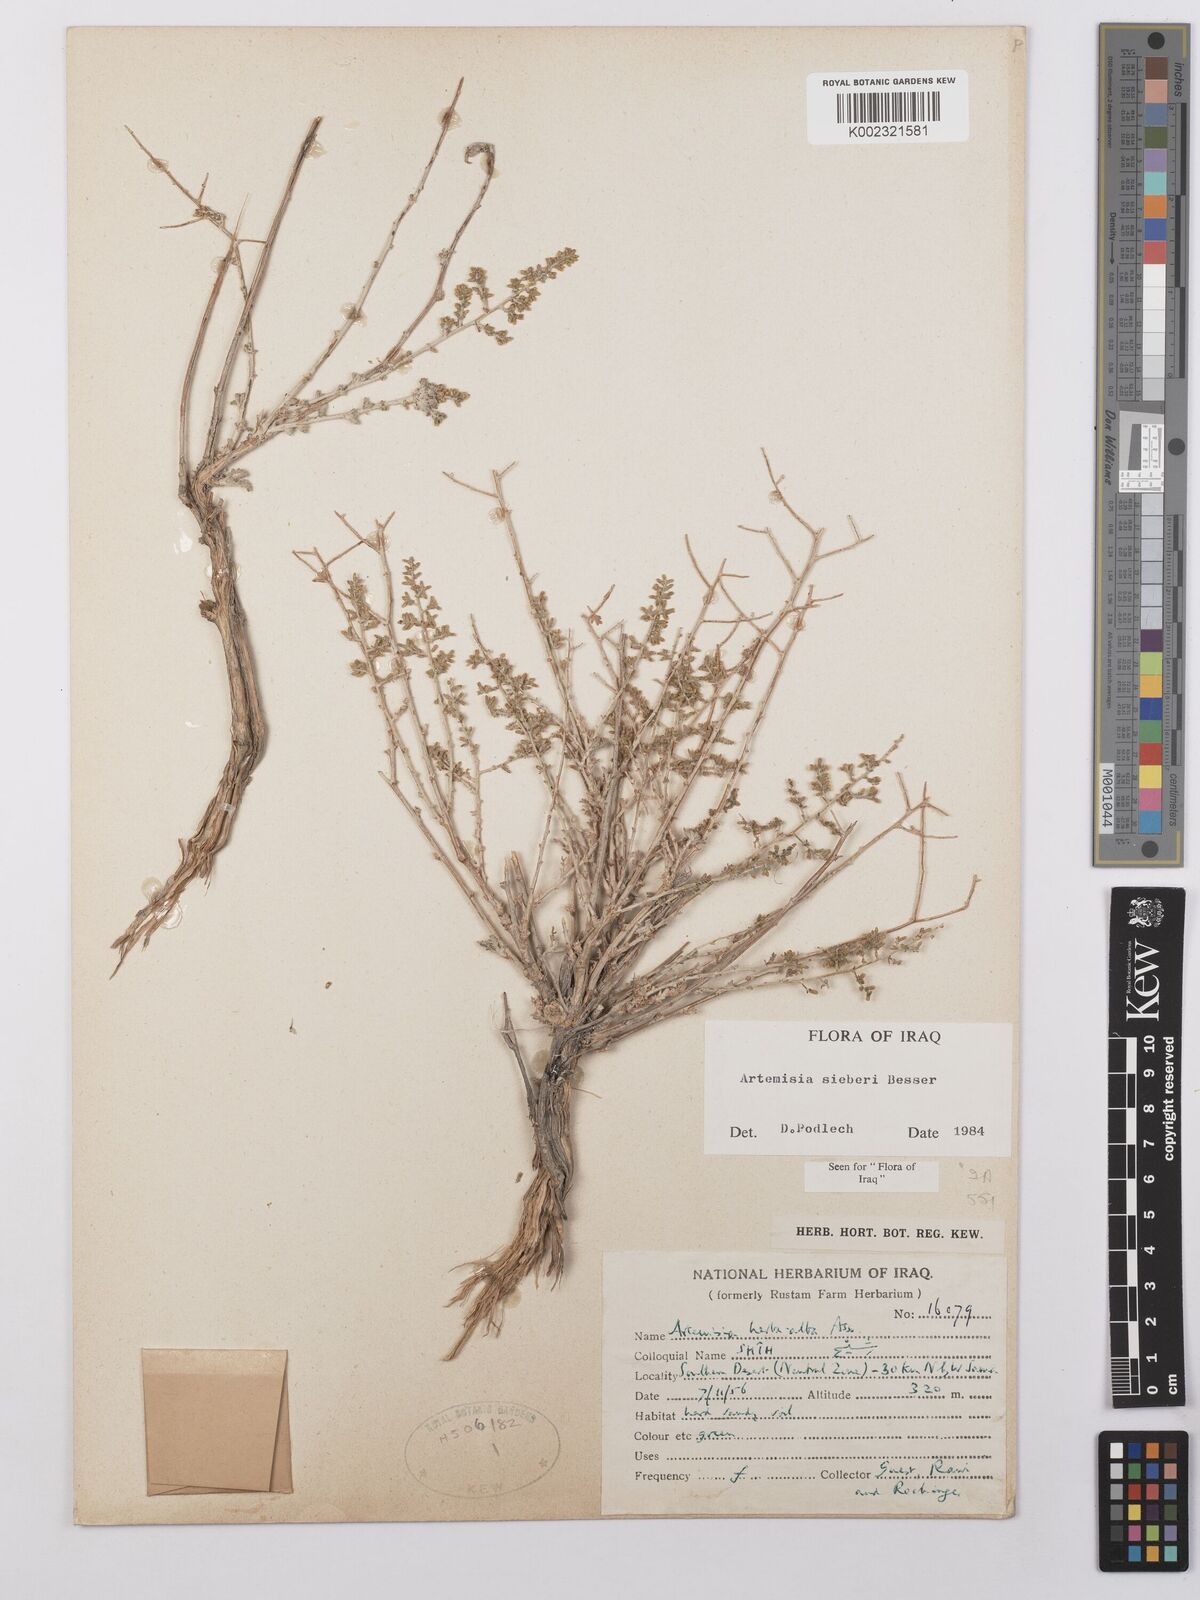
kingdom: Plantae
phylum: Tracheophyta
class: Magnoliopsida
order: Asterales
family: Asteraceae
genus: Artemisia
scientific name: Artemisia sieberi
